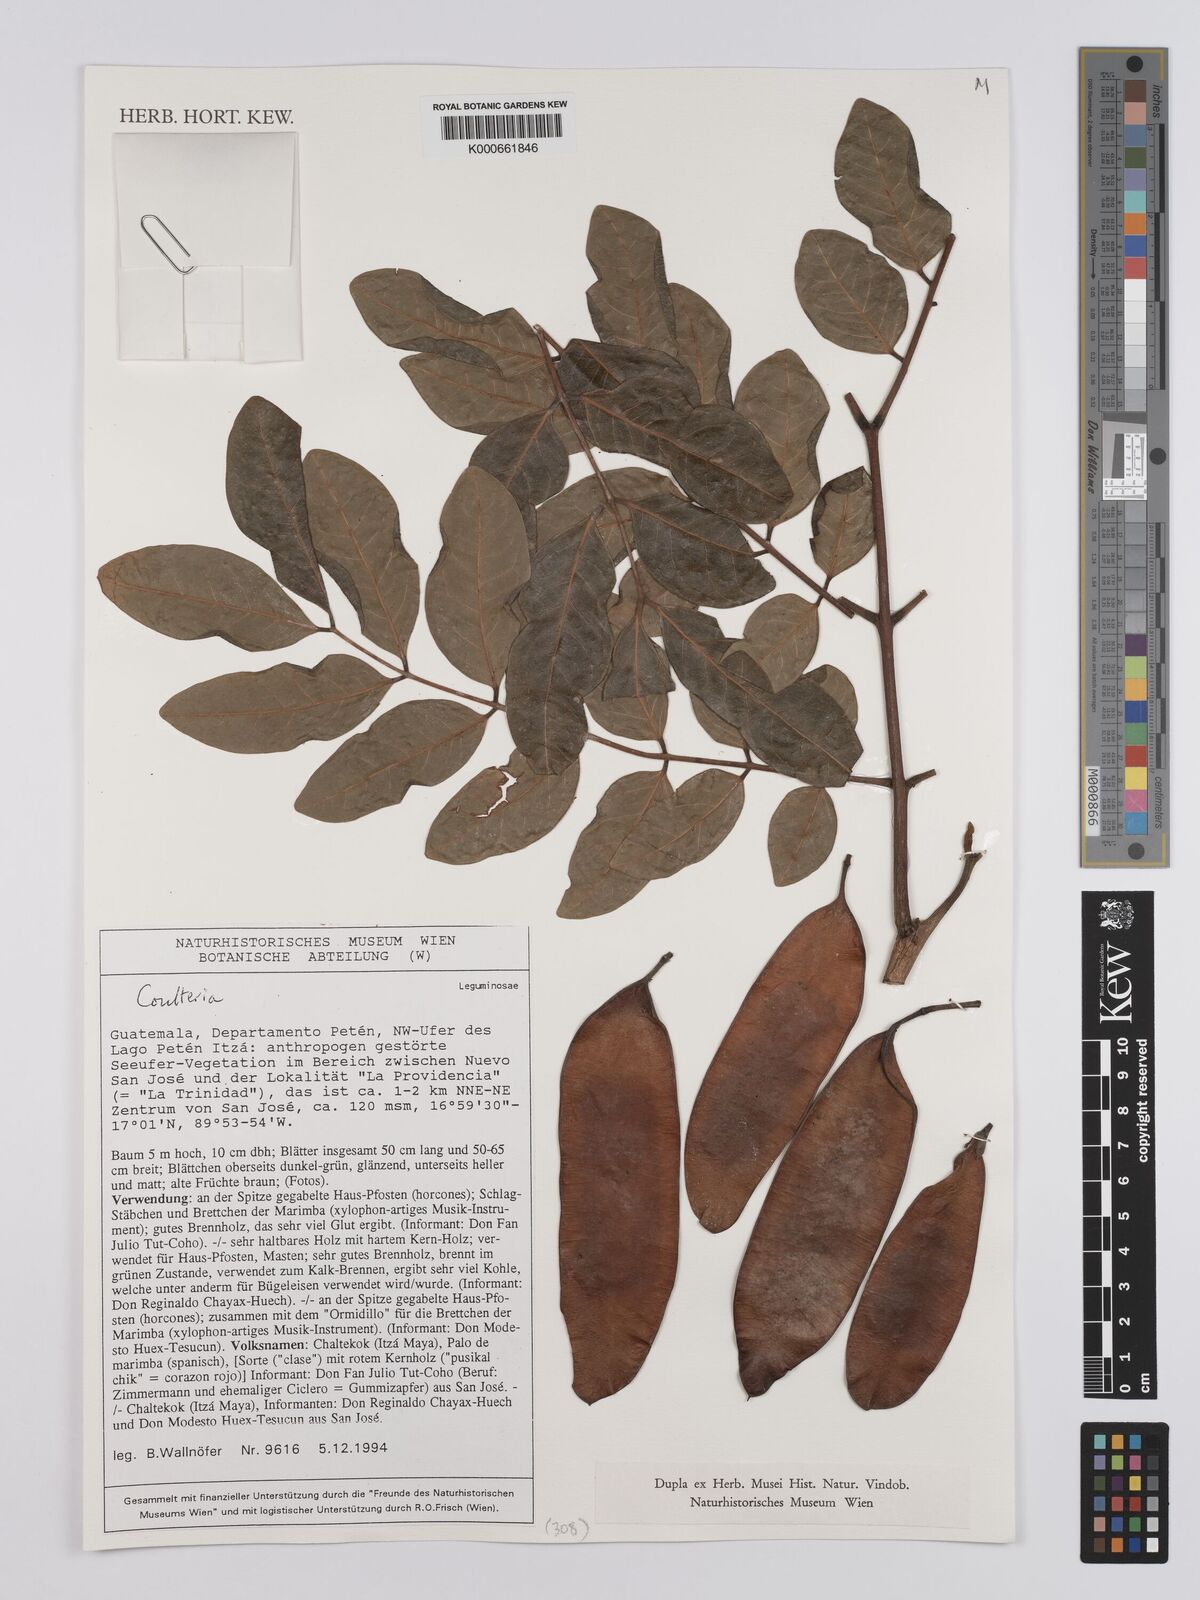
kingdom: Plantae
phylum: Tracheophyta
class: Magnoliopsida
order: Fabales
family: Fabaceae
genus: Coulteria
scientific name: Coulteria
